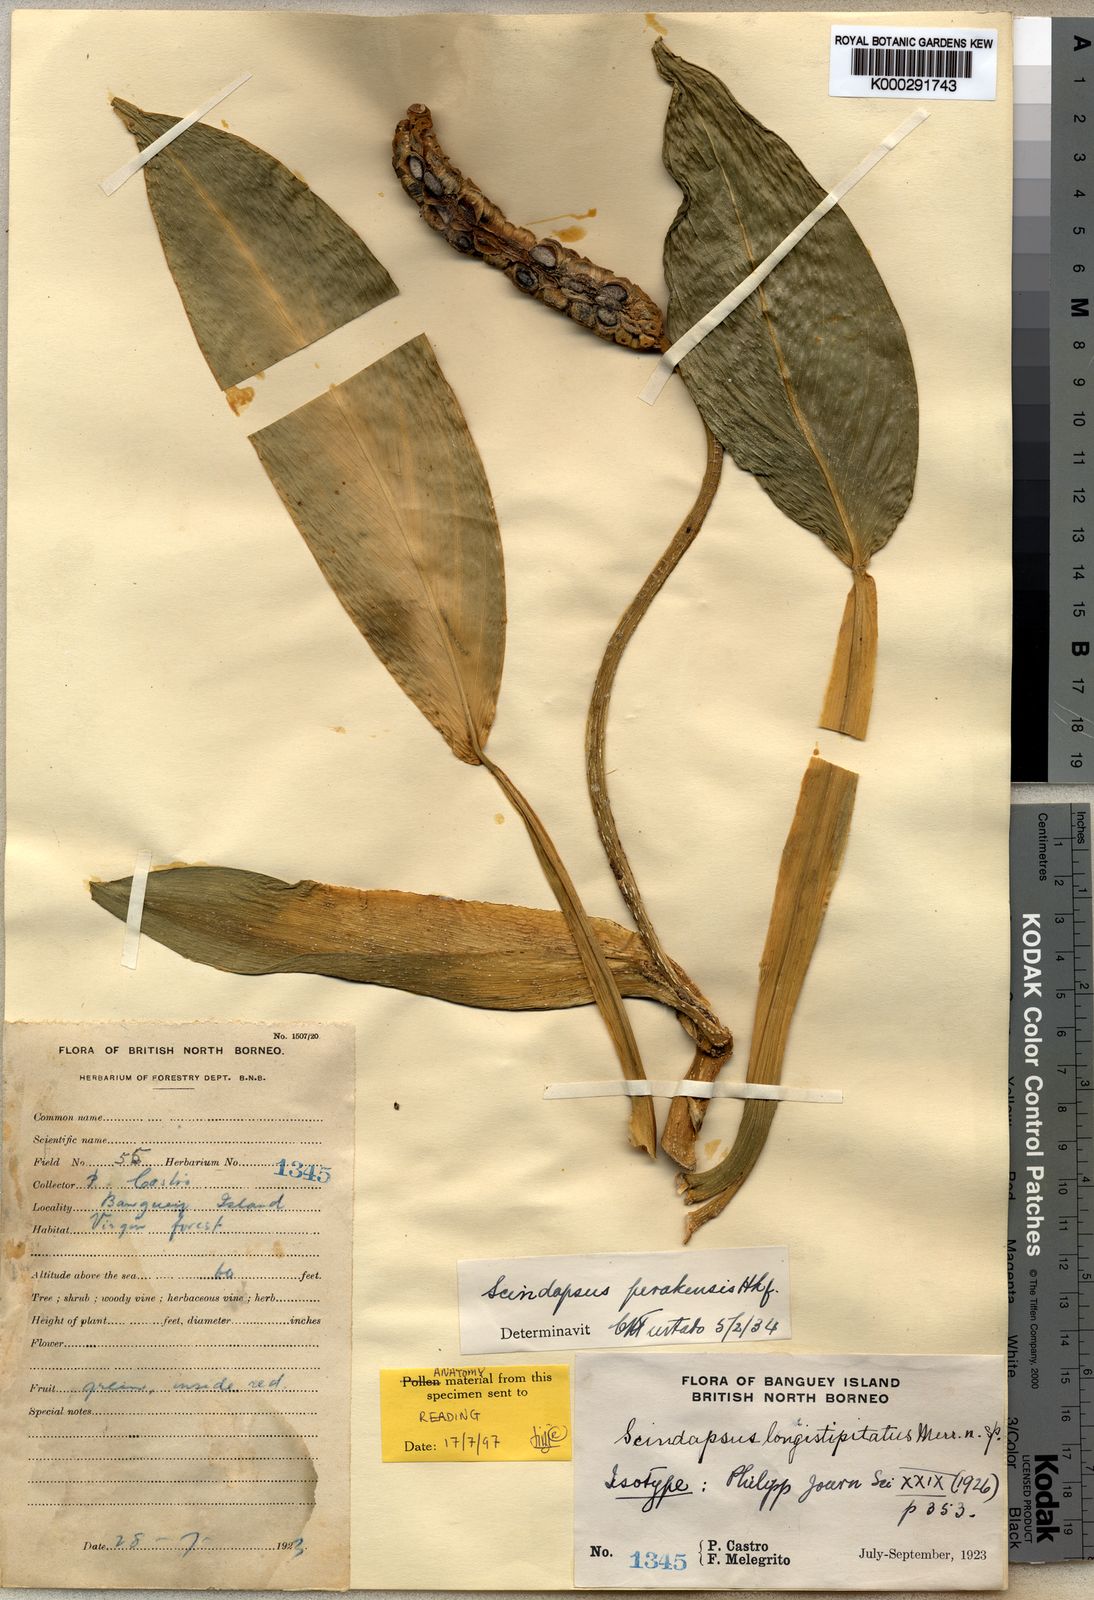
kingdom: Plantae
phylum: Tracheophyta
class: Liliopsida
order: Alismatales
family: Araceae
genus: Scindapsus
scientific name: Scindapsus longistipitatus
